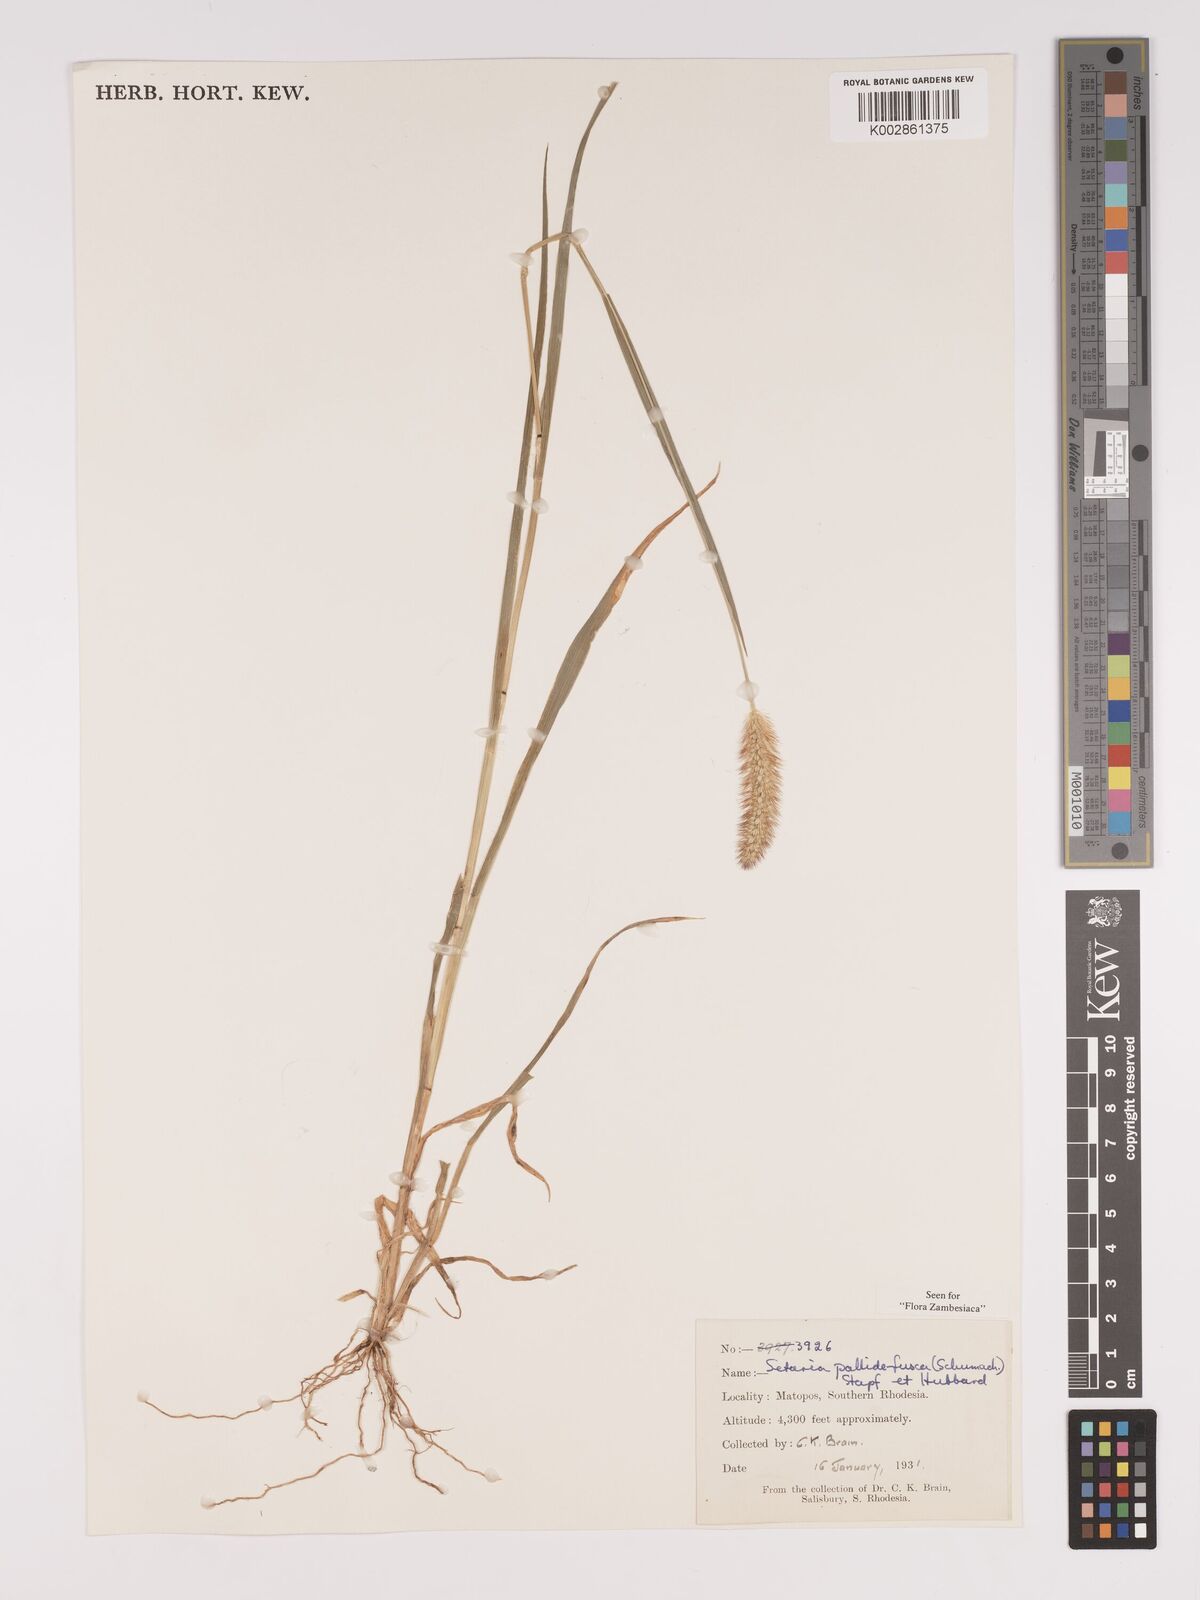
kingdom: Plantae
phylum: Tracheophyta
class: Liliopsida
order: Poales
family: Poaceae
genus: Setaria
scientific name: Setaria pumila
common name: Yellow bristle-grass
